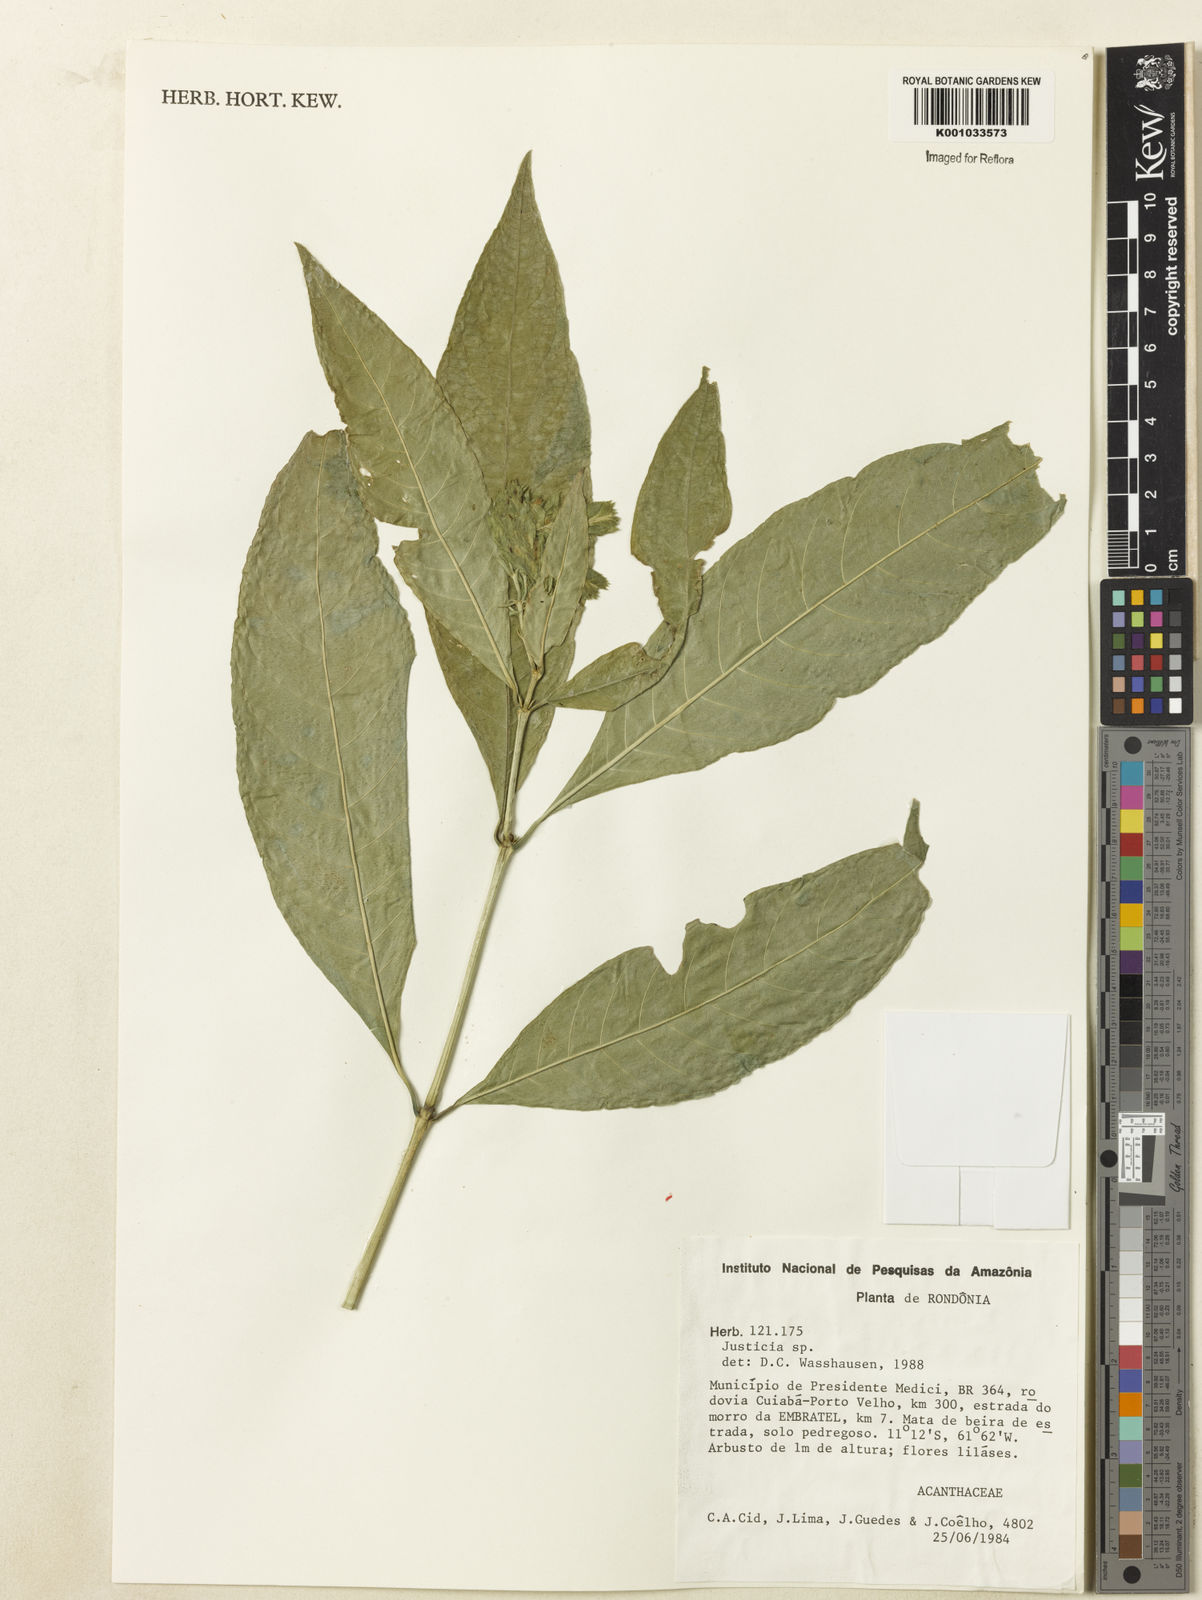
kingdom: Plantae
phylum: Tracheophyta
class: Magnoliopsida
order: Lamiales
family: Acanthaceae
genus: Justicia
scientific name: Justicia
